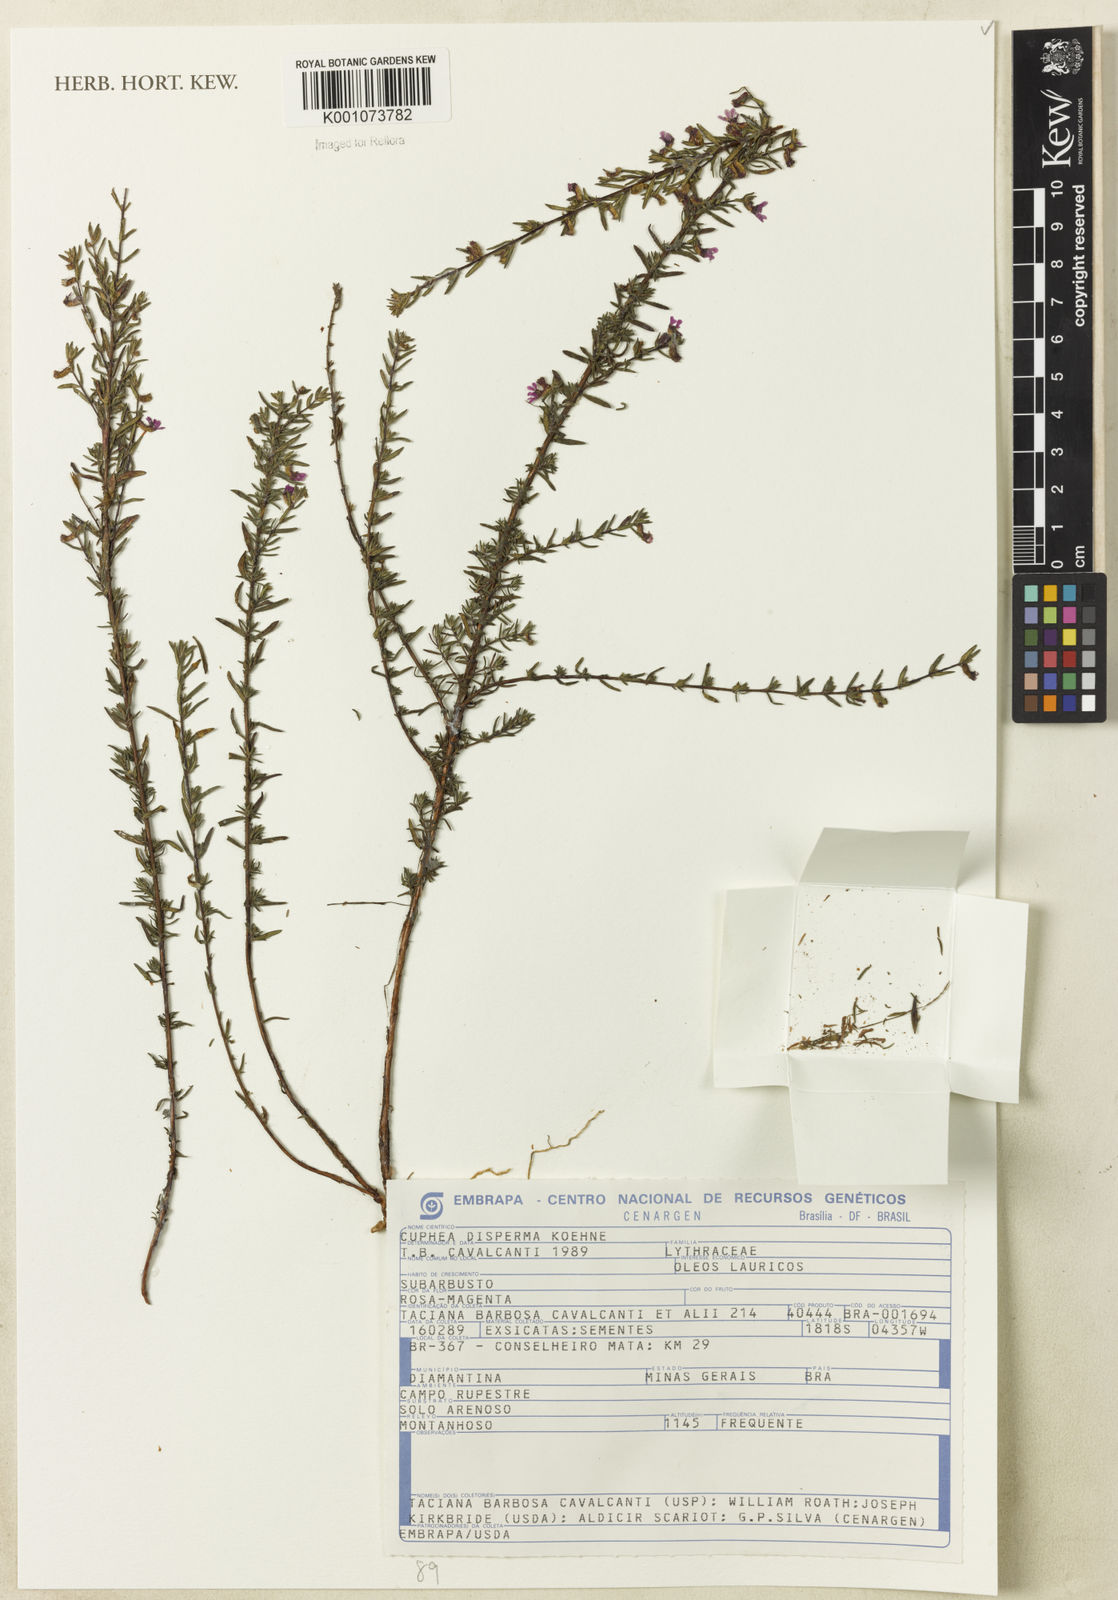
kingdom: Plantae
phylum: Tracheophyta
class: Magnoliopsida
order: Myrtales
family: Lythraceae
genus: Cuphea
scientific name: Cuphea disperma
